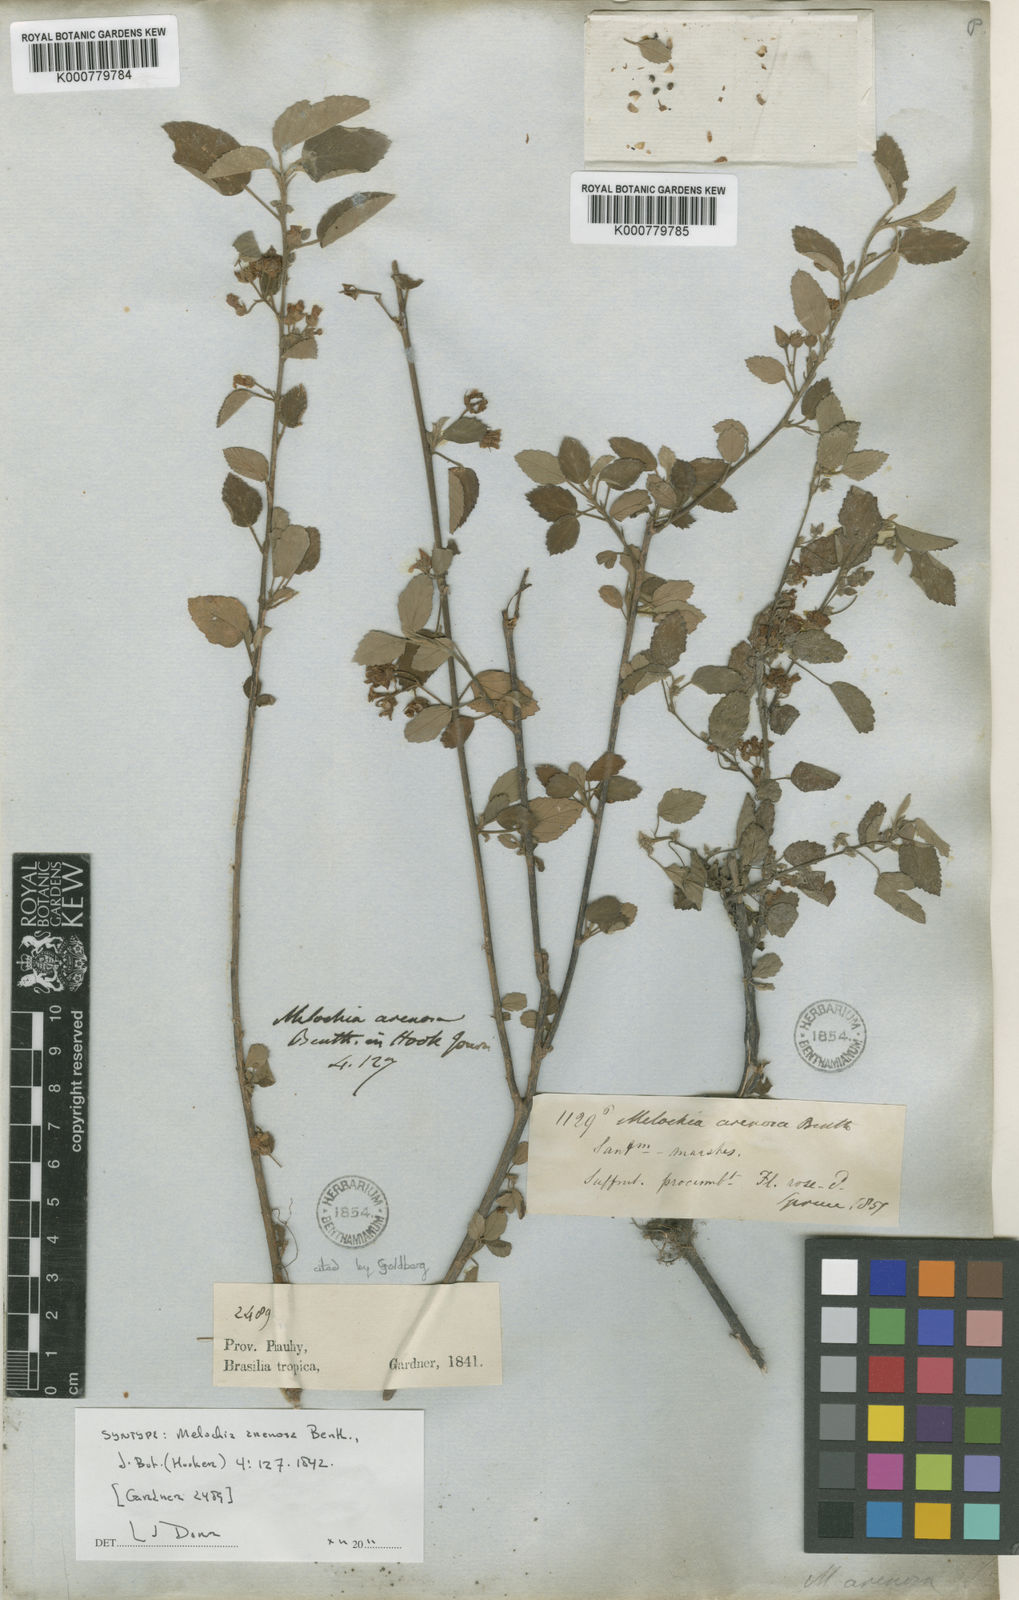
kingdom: Plantae
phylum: Tracheophyta
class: Magnoliopsida
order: Malvales
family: Malvaceae
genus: Melochia
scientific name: Melochia arenosa
